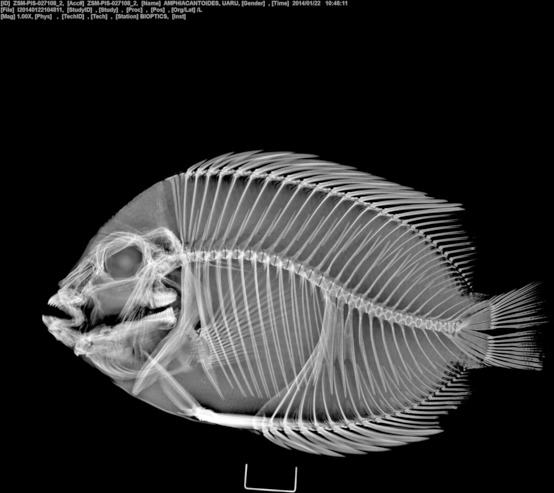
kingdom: Animalia
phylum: Chordata
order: Perciformes
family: Cichlidae
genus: Uaru
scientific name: Uaru amphiacanthoides
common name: Triangle cichlid
